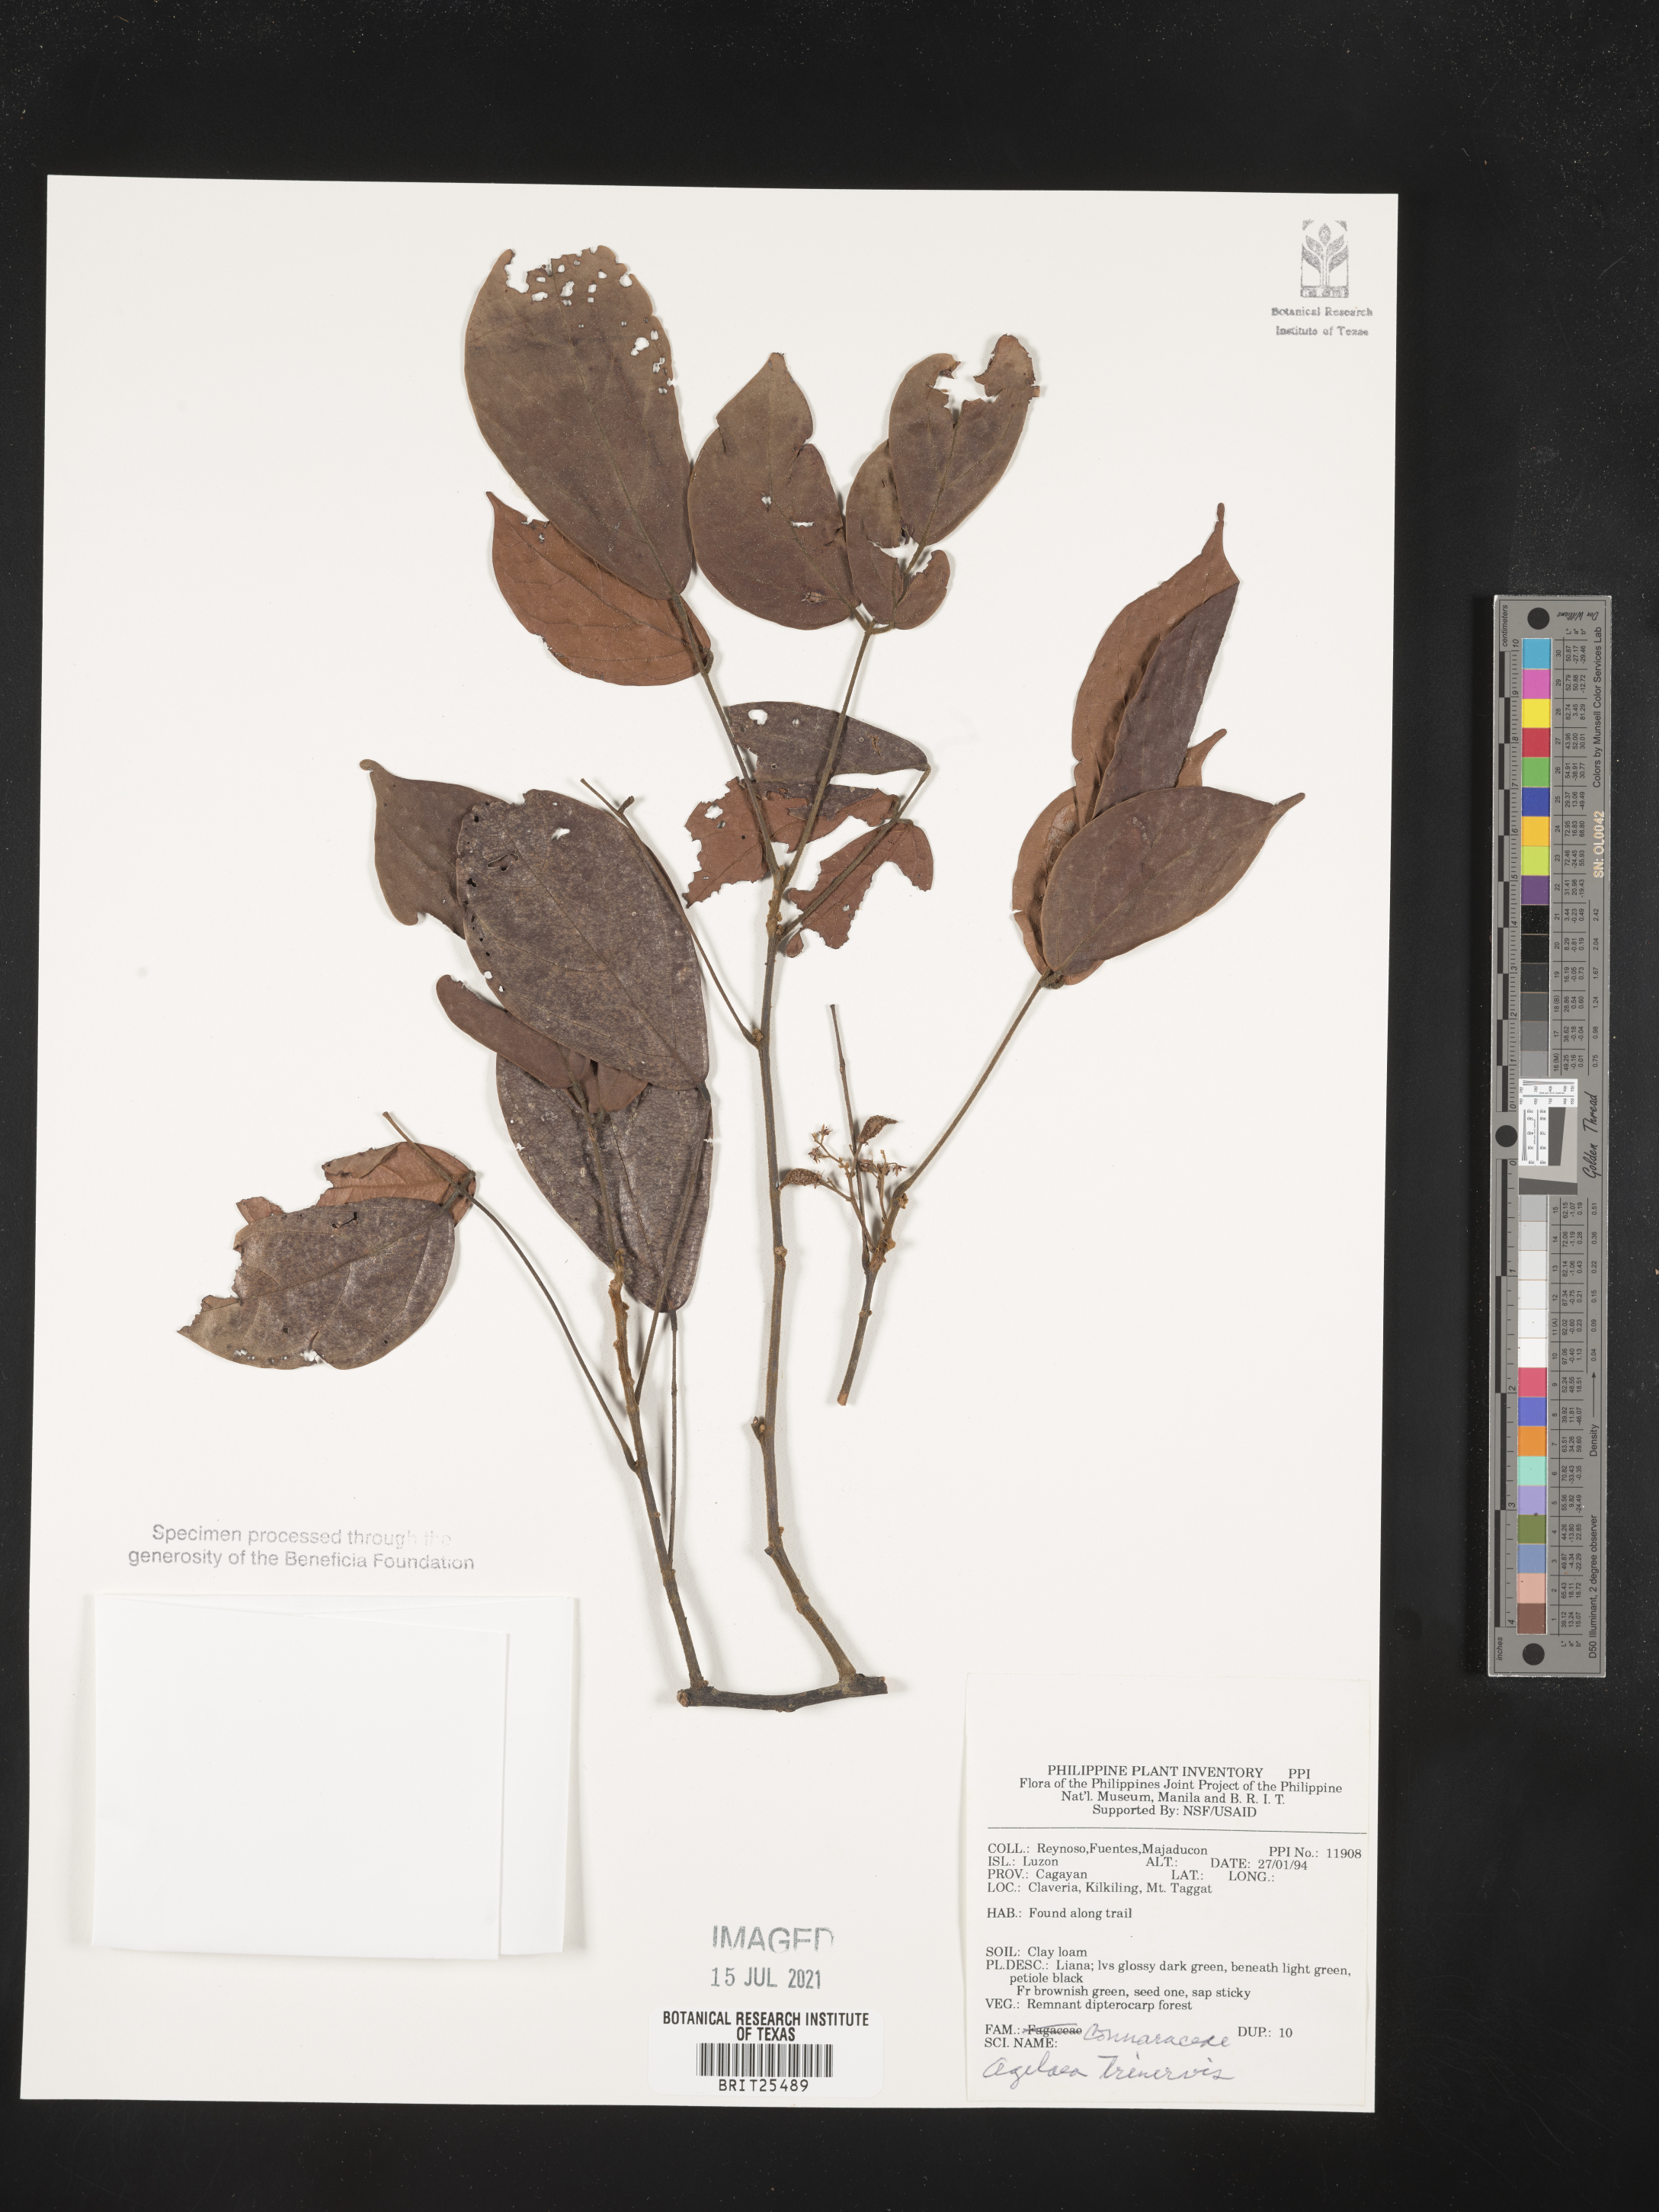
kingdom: Plantae
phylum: Tracheophyta
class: Magnoliopsida
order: Oxalidales
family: Connaraceae
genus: Agelaea
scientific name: Agelaea trinervis
